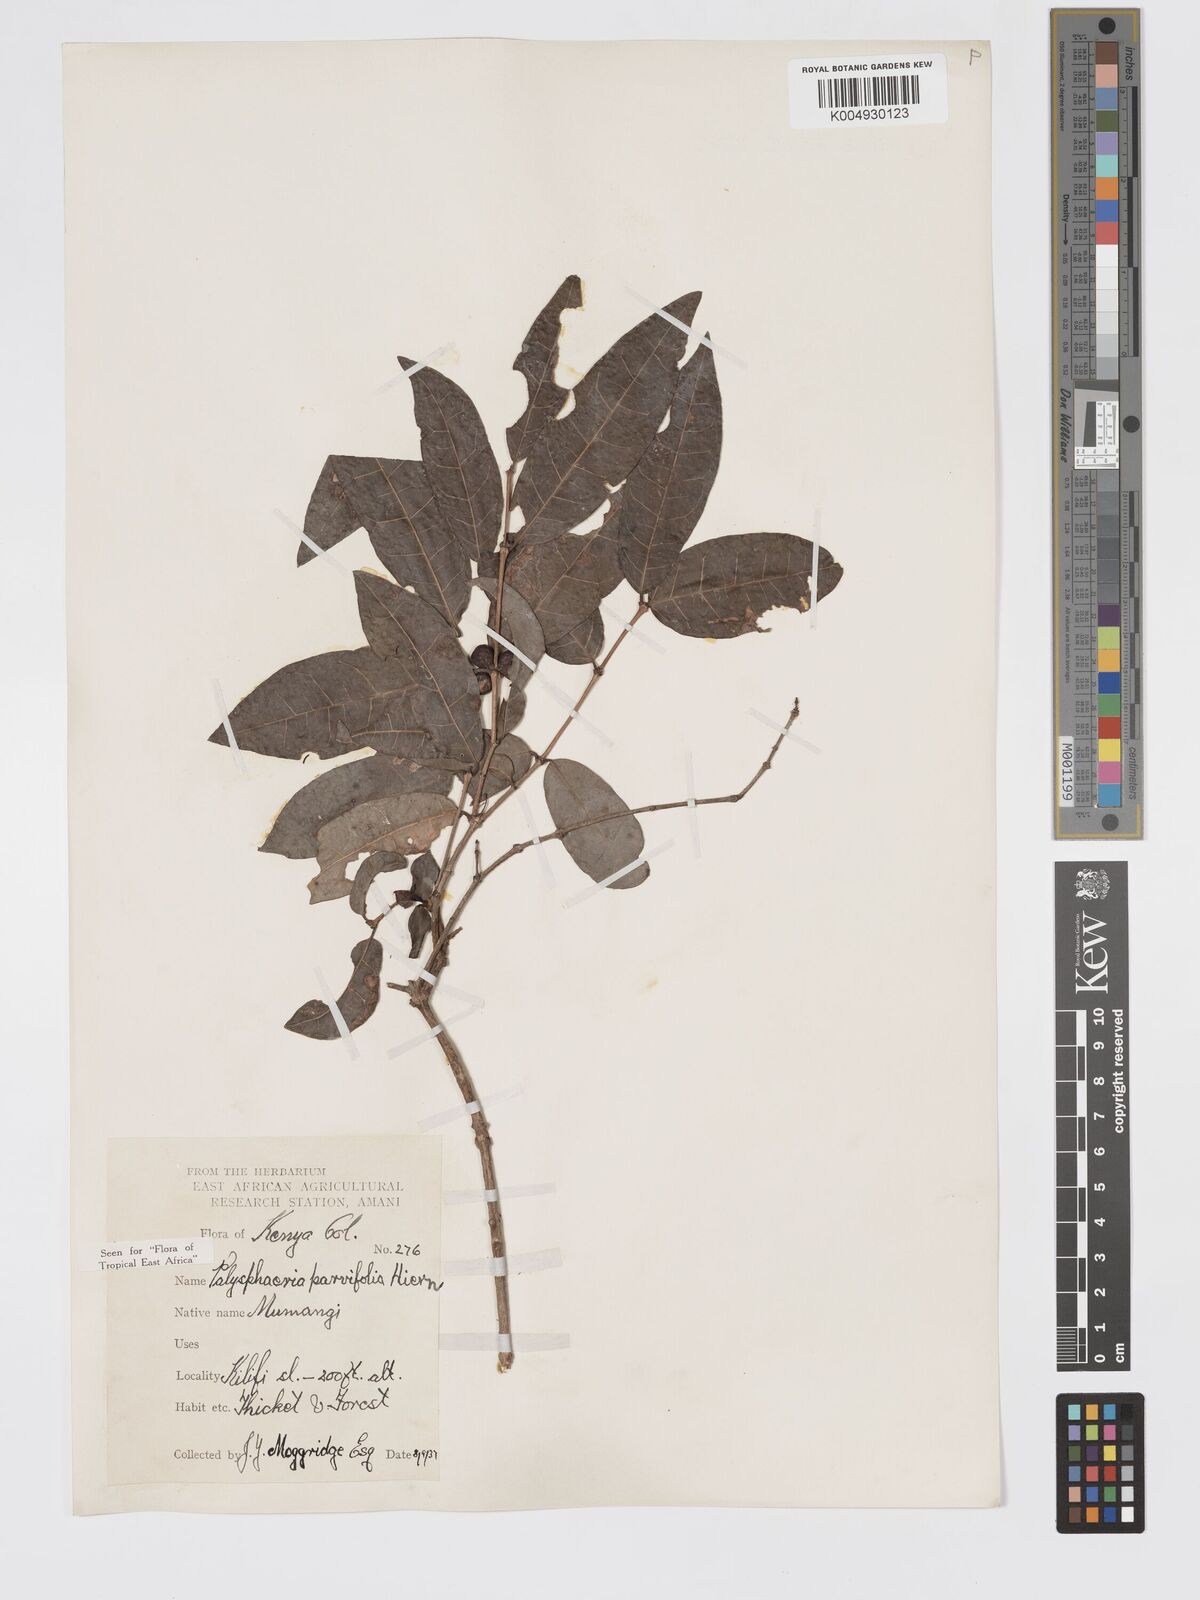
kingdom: Plantae
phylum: Tracheophyta
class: Magnoliopsida
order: Gentianales
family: Rubiaceae
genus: Polysphaeria
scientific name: Polysphaeria parvifolia
